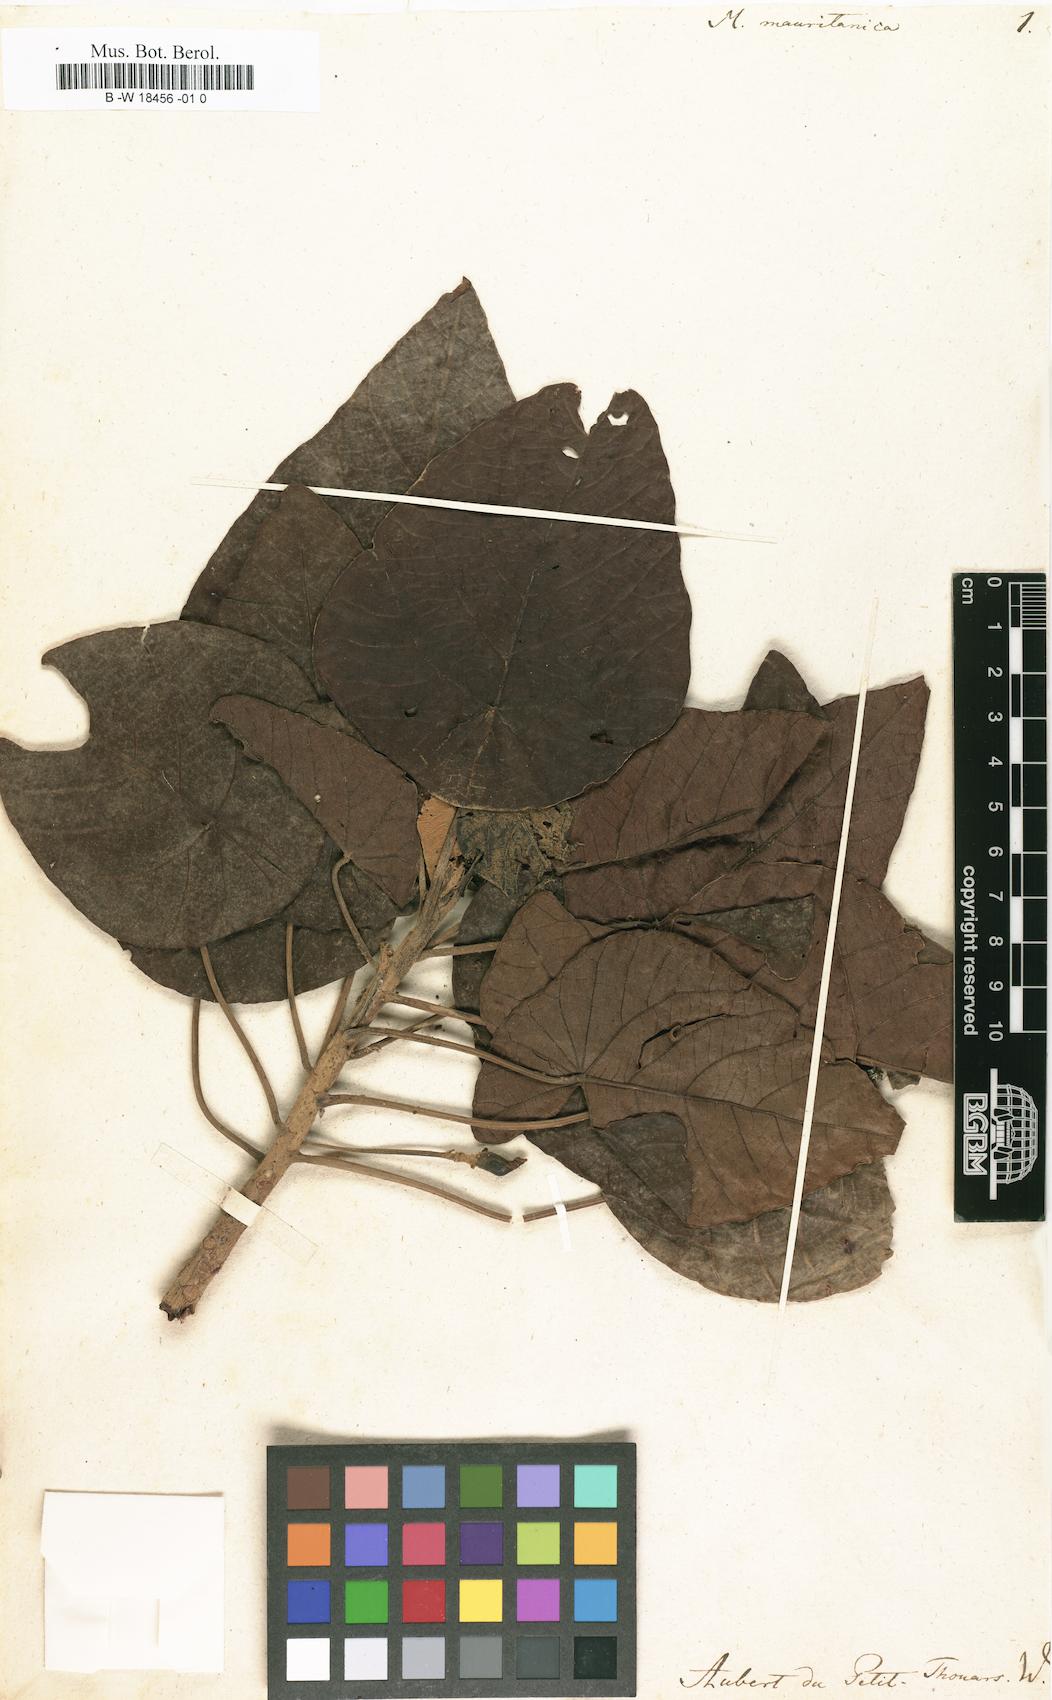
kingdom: Plantae
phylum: Tracheophyta
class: Magnoliopsida
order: Malpighiales
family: Euphorbiaceae
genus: Macaranga
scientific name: Macaranga mauritiana
